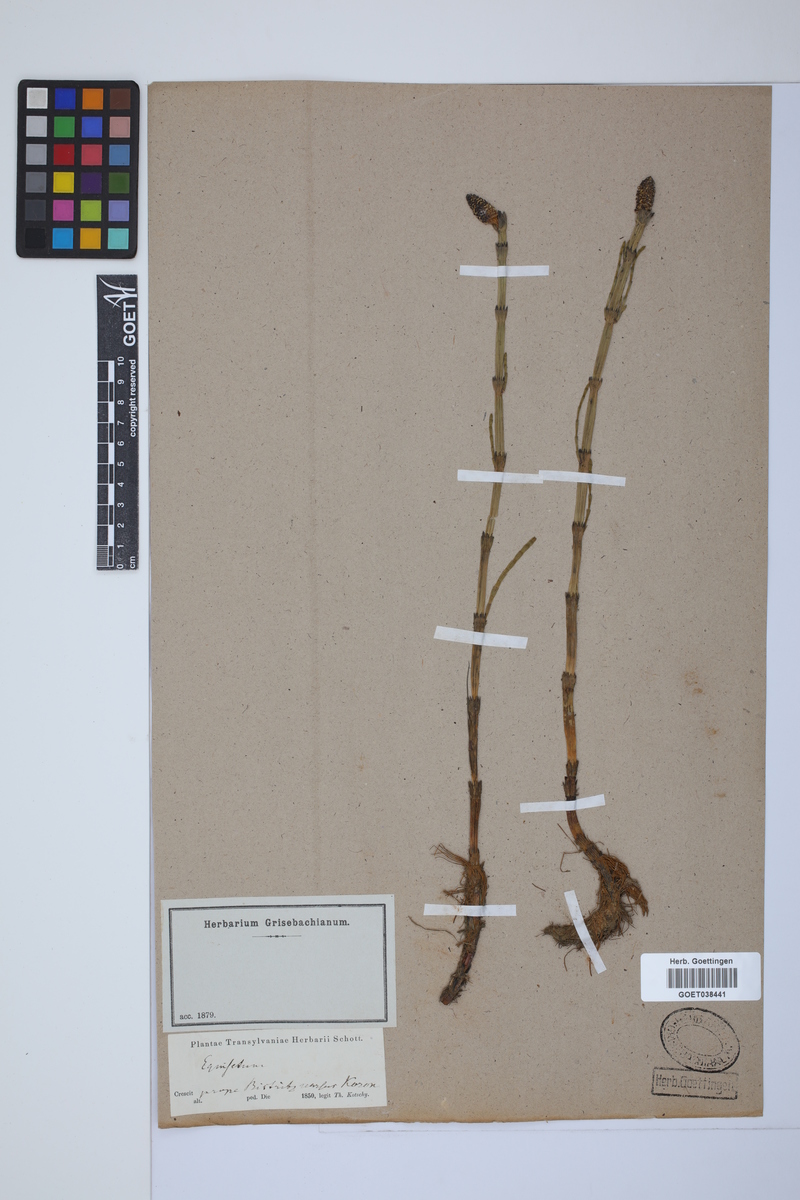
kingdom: Plantae
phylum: Tracheophyta
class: Polypodiopsida
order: Equisetales
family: Equisetaceae
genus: Equisetum
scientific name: Equisetum fluviatile
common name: Water horsetail
